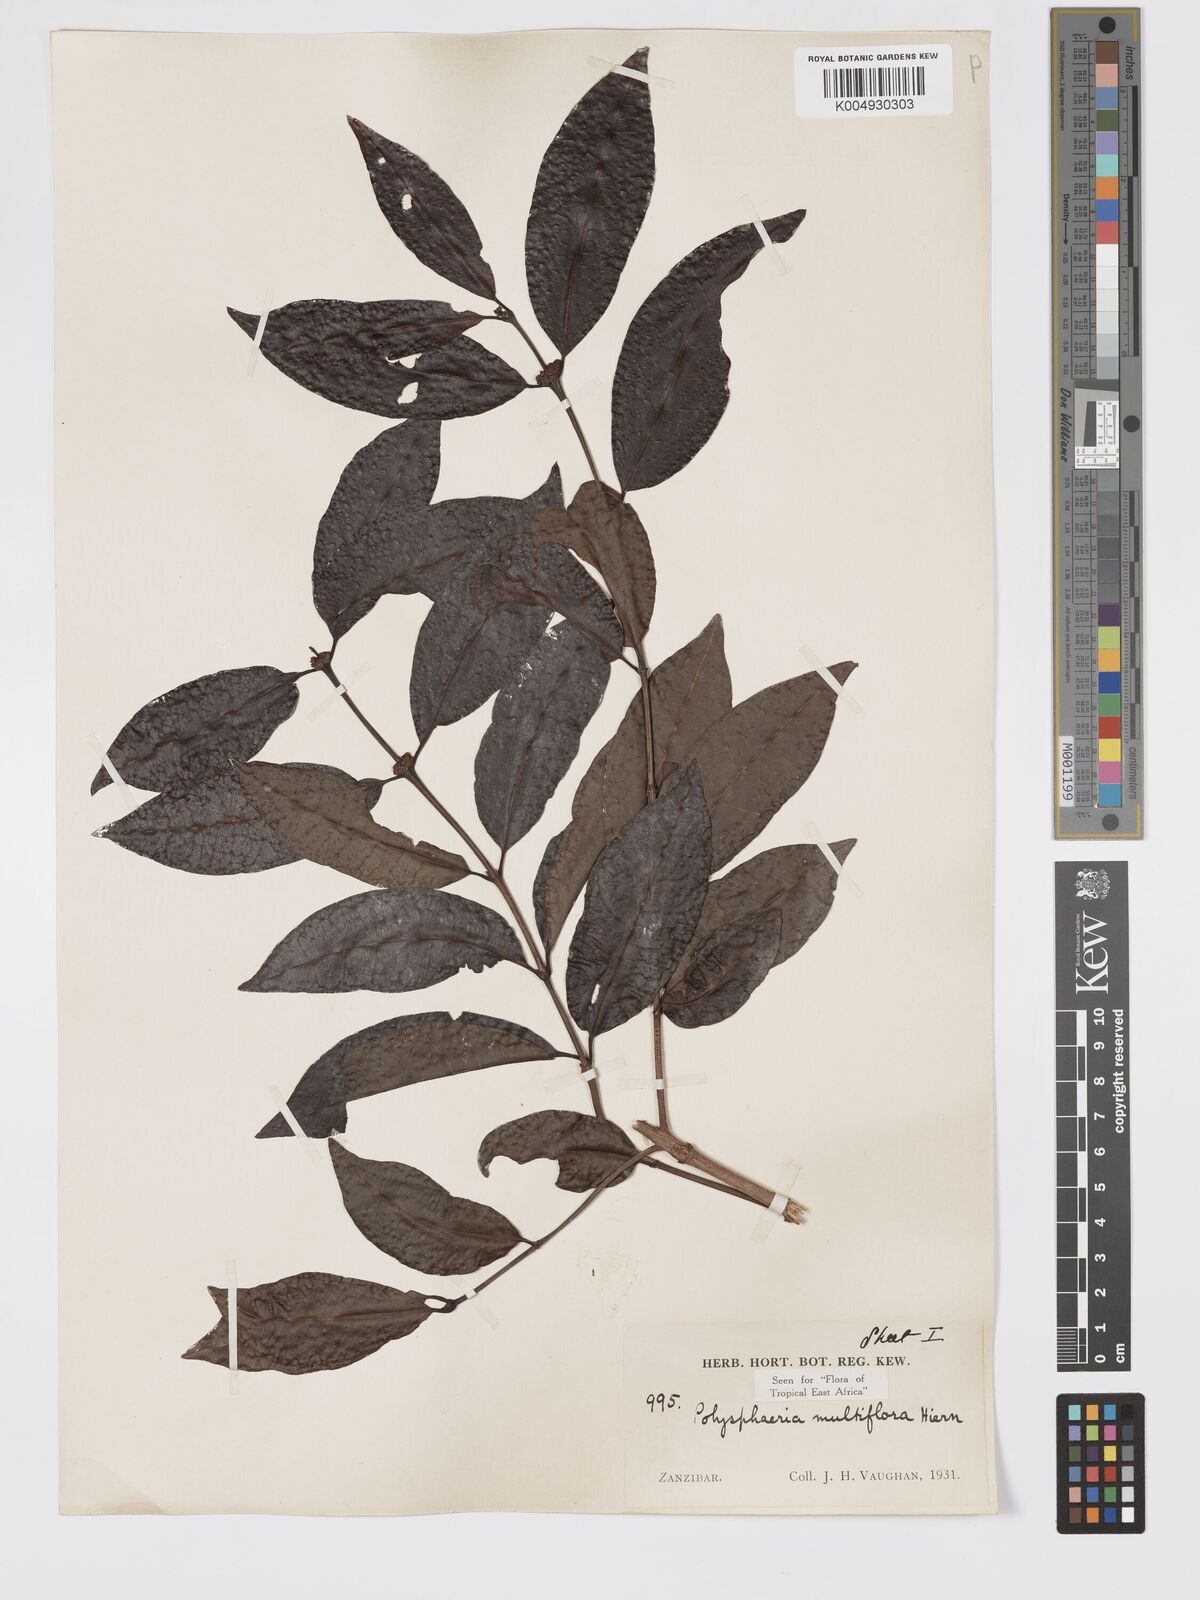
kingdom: Plantae
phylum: Tracheophyta
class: Magnoliopsida
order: Gentianales
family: Rubiaceae
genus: Polysphaeria
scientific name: Polysphaeria multiflora
